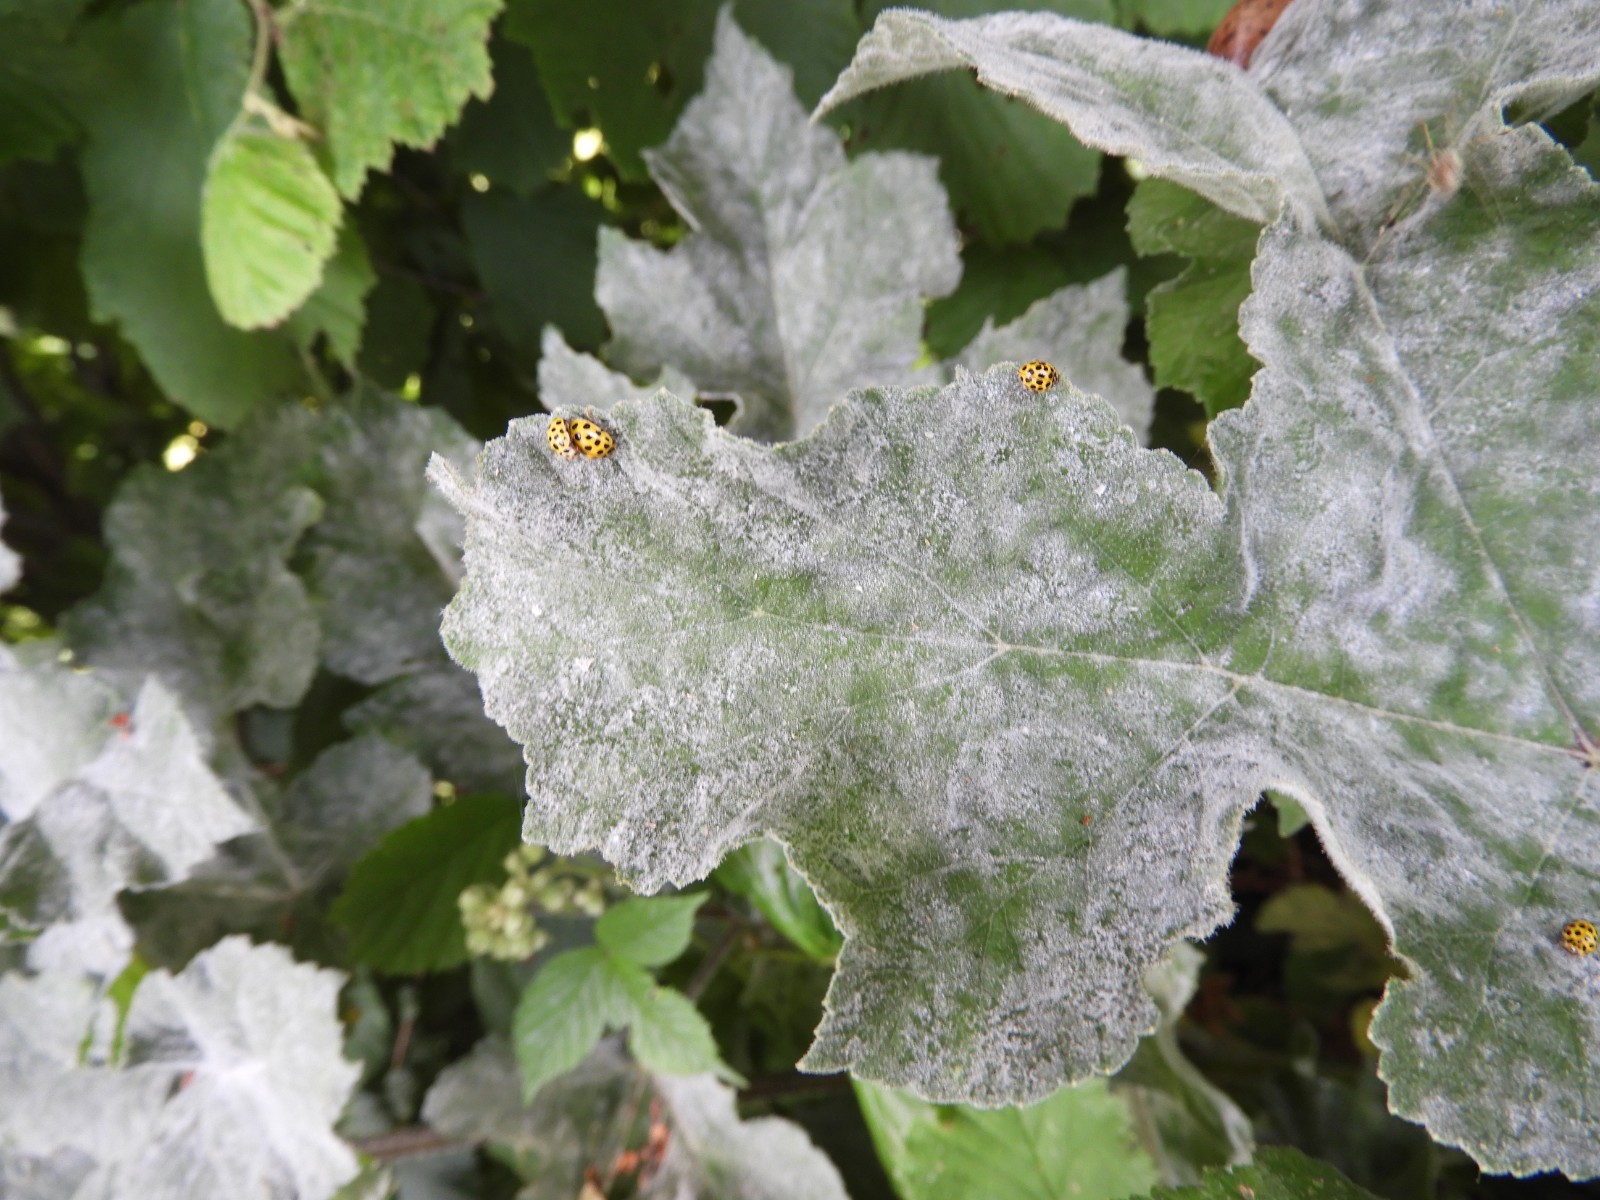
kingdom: Fungi
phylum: Ascomycota
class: Leotiomycetes
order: Helotiales
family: Erysiphaceae
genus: Erysiphe
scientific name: Erysiphe heraclei
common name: skærmplante-meldug
